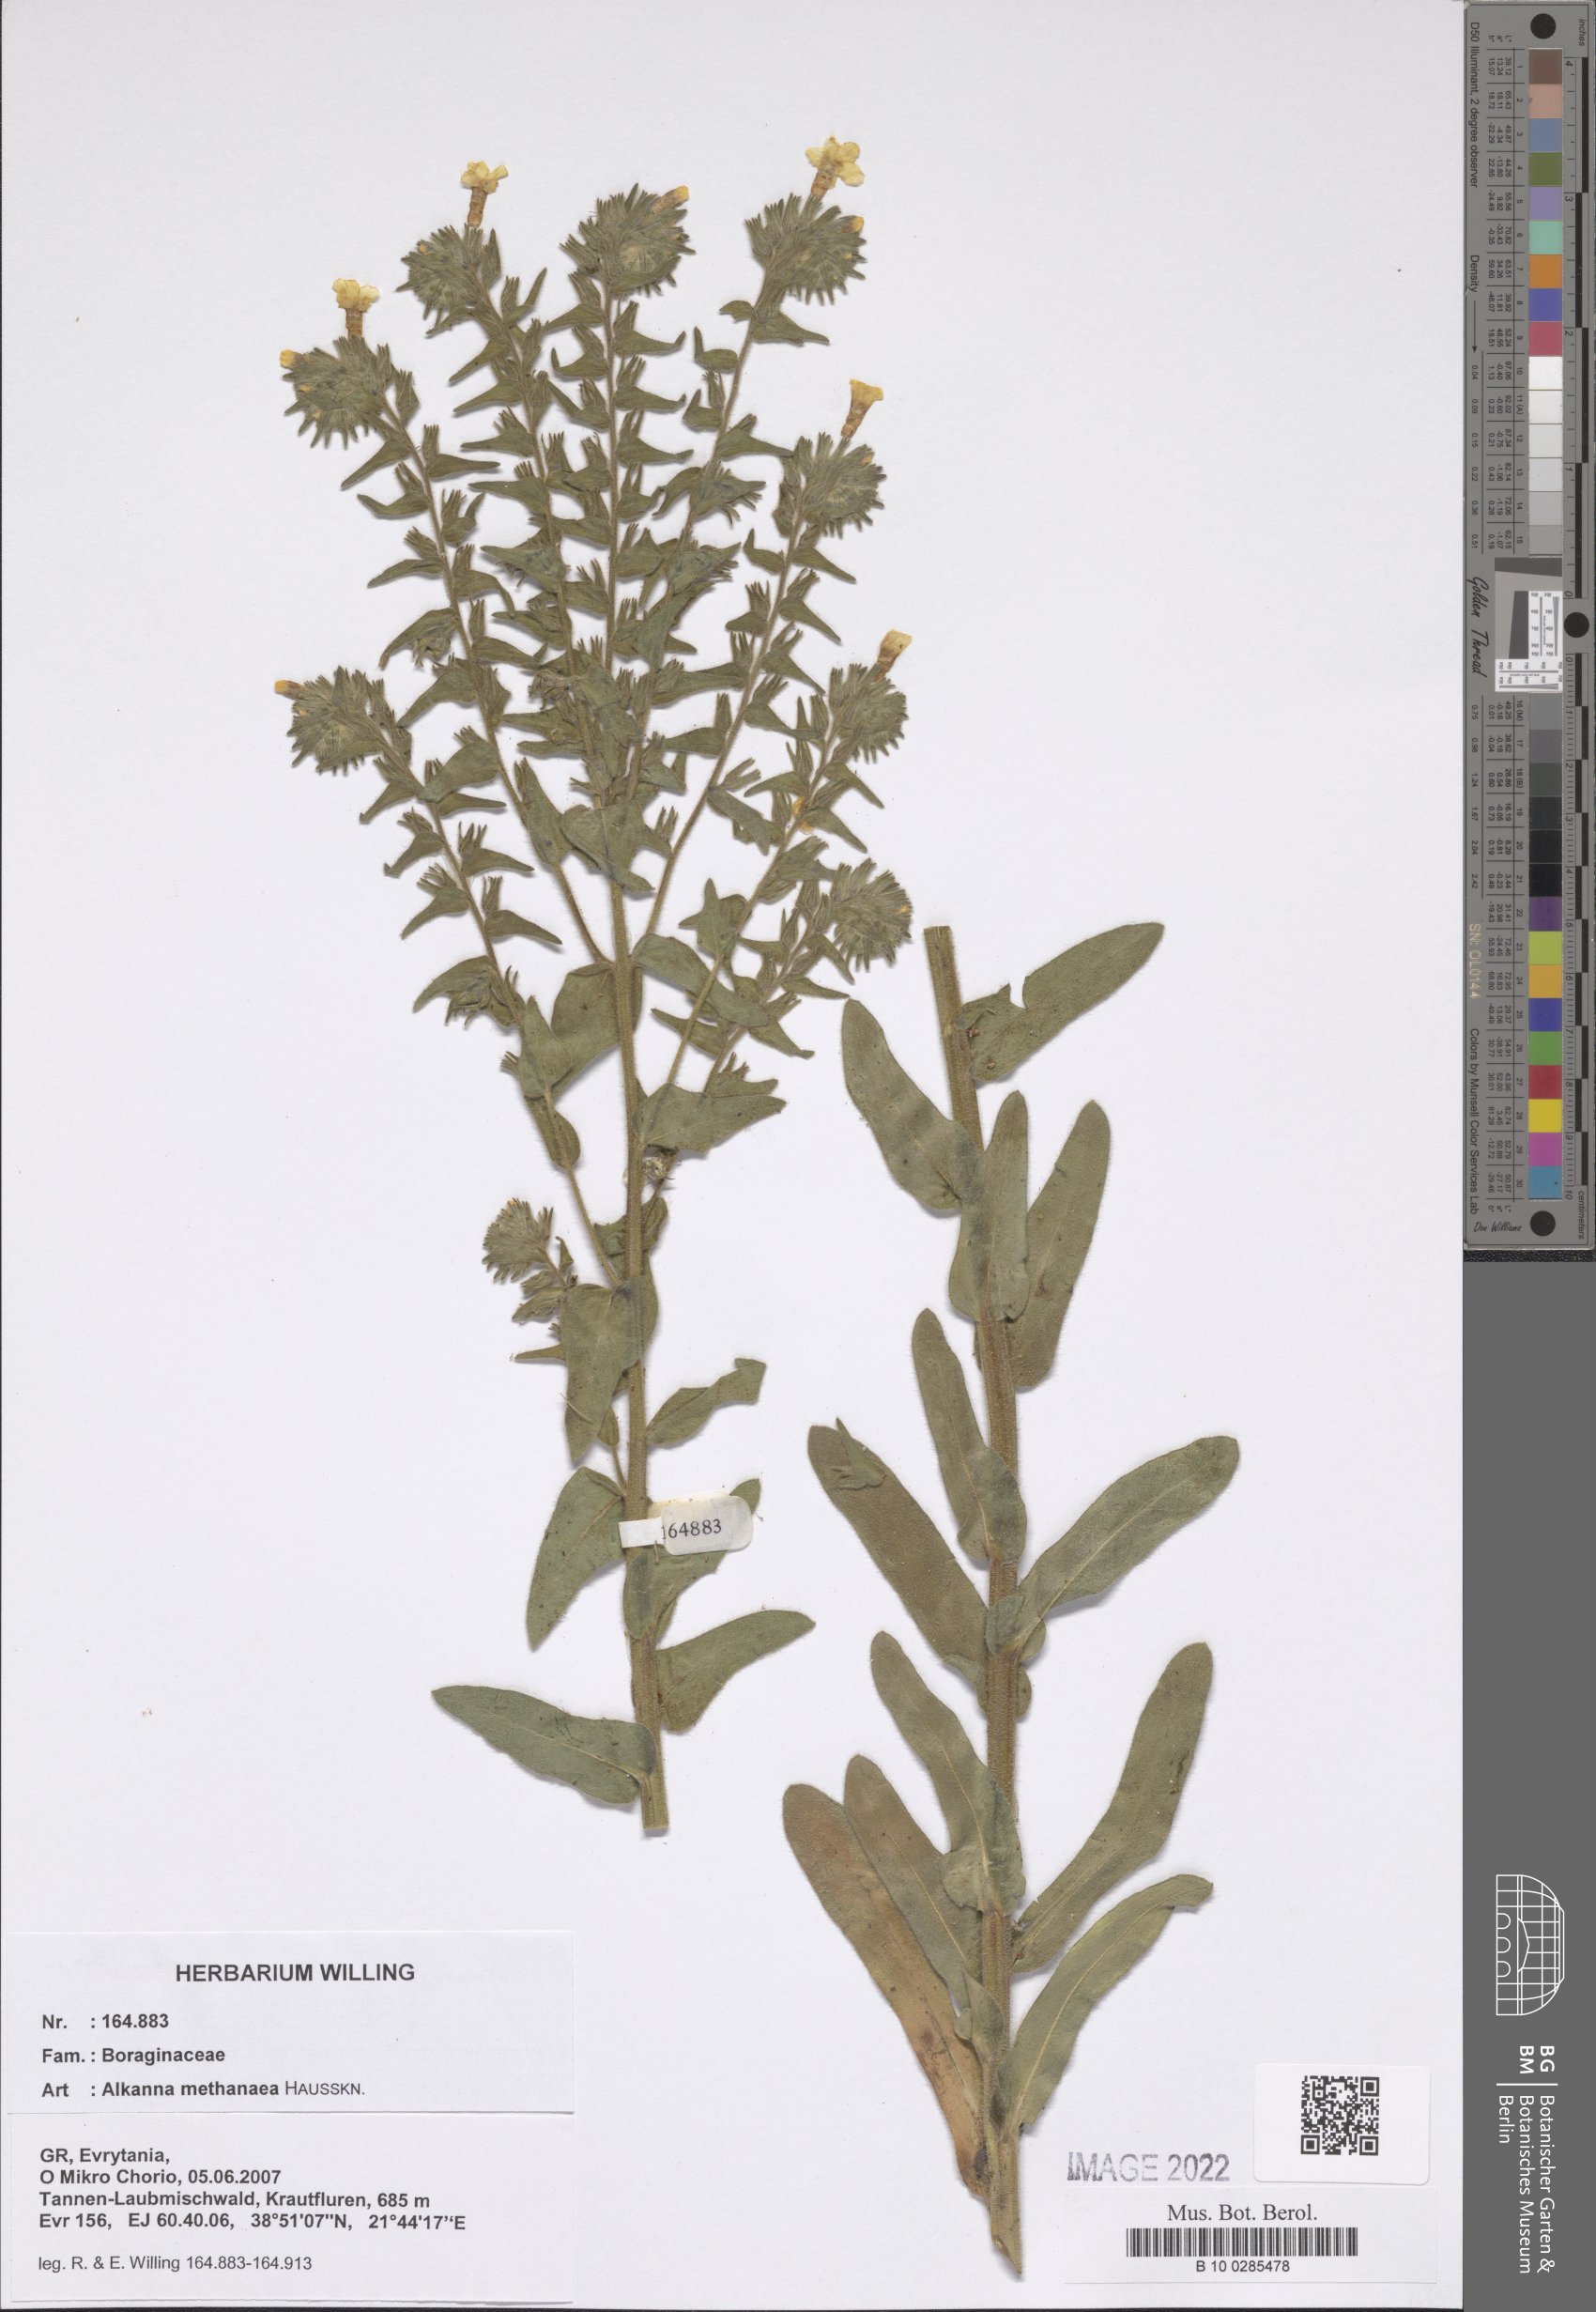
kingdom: Plantae
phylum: Tracheophyta
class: Magnoliopsida
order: Boraginales
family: Boraginaceae
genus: Alkanna
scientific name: Alkanna methanaea
